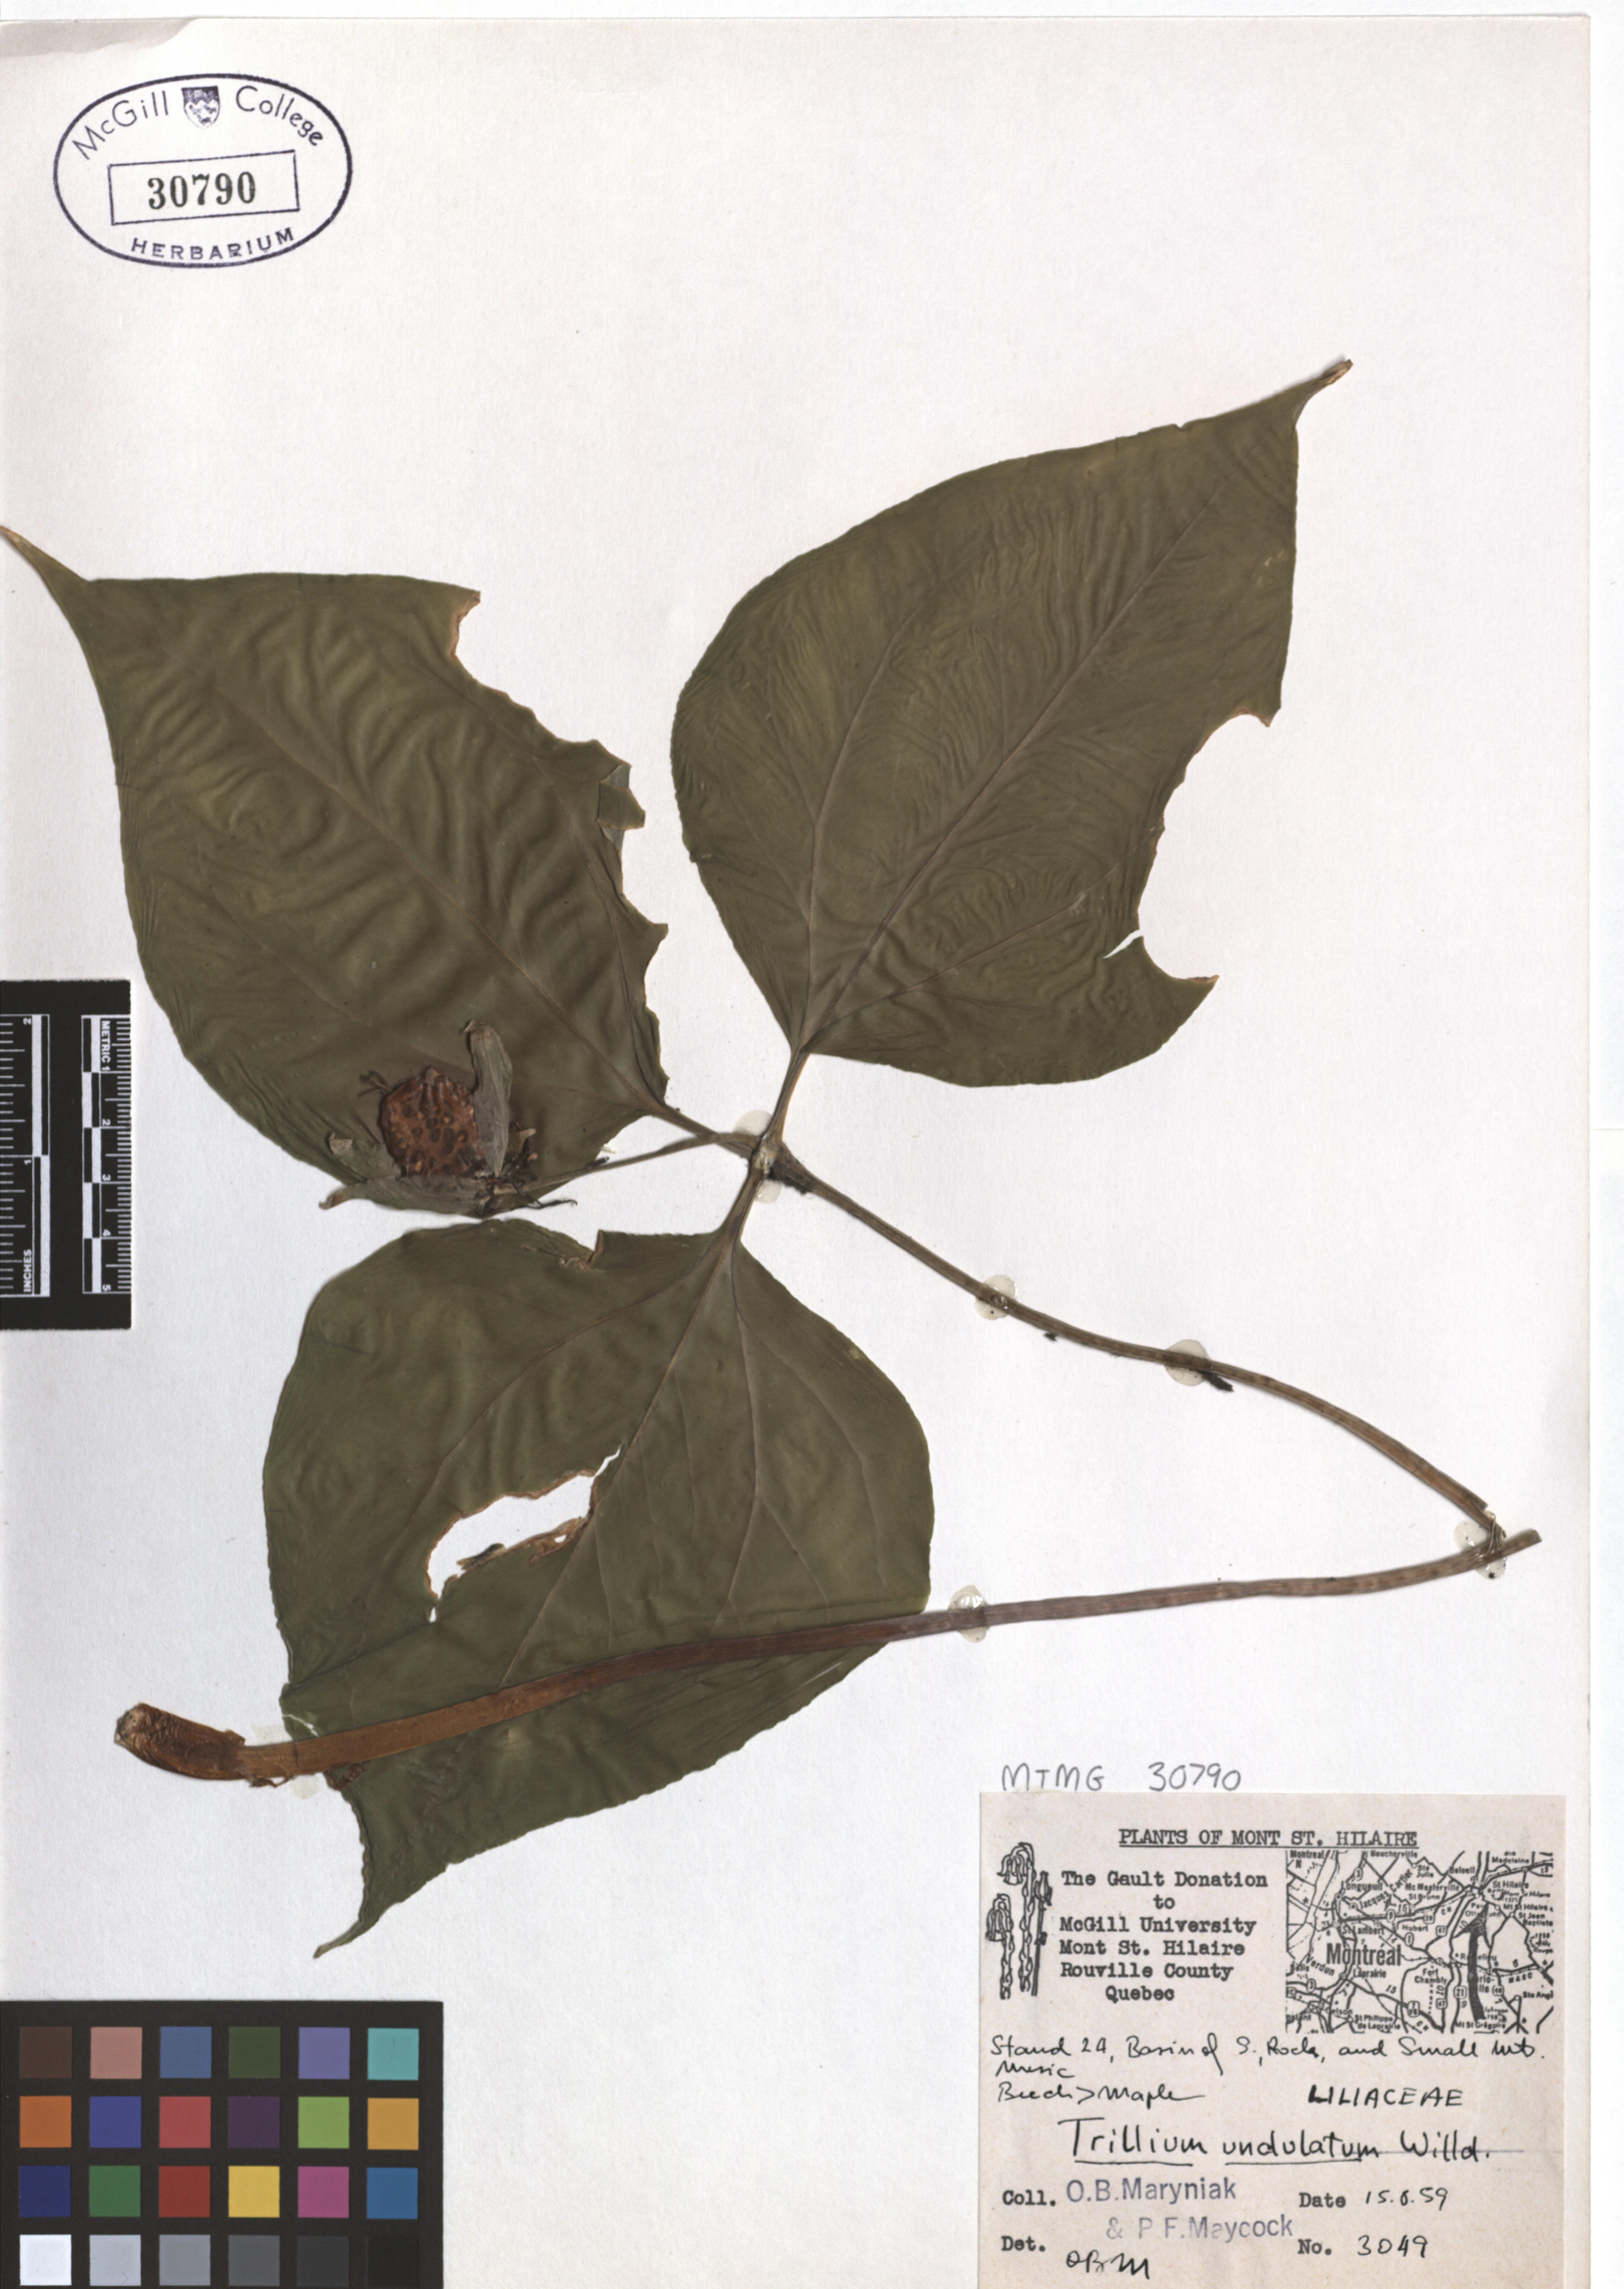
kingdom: Plantae
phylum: Tracheophyta
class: Liliopsida
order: Liliales
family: Melanthiaceae
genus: Trillium
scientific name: Trillium undulatum
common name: Paint trillium
